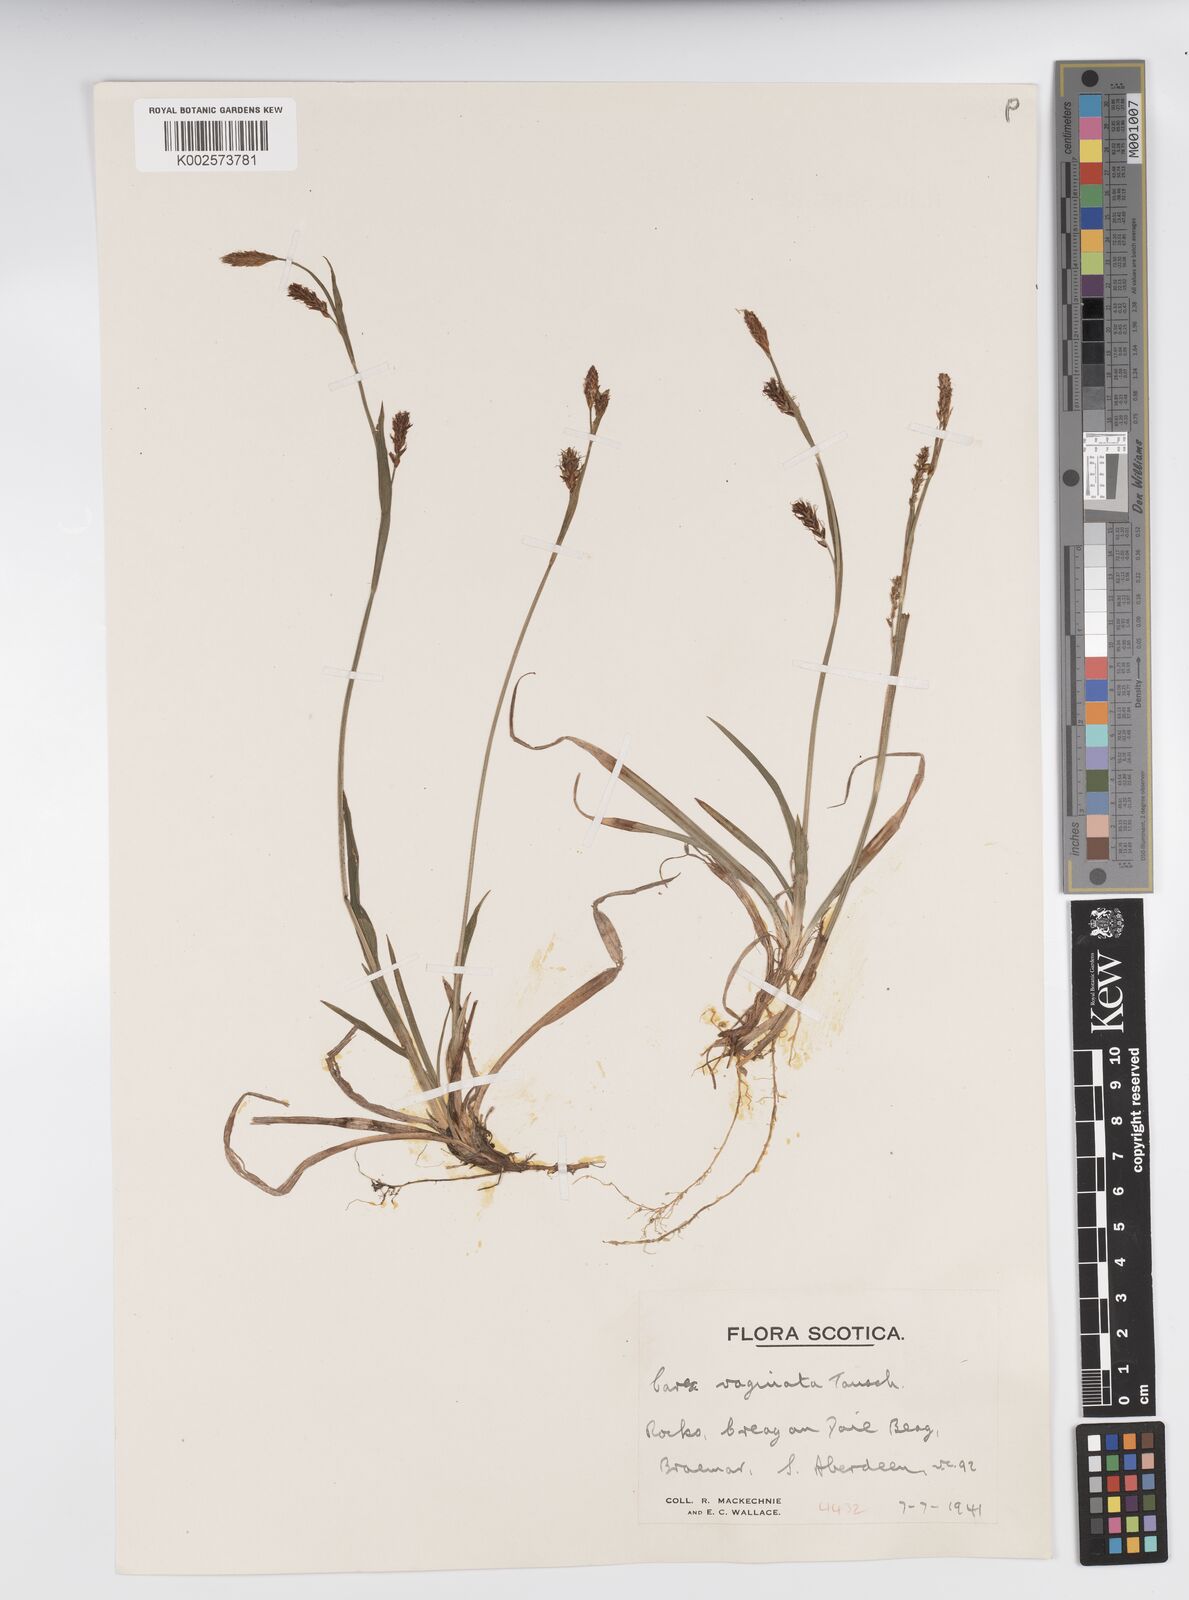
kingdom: Plantae
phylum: Tracheophyta
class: Liliopsida
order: Poales
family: Cyperaceae
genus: Carex
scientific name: Carex vaginata
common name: Sheathed sedge
